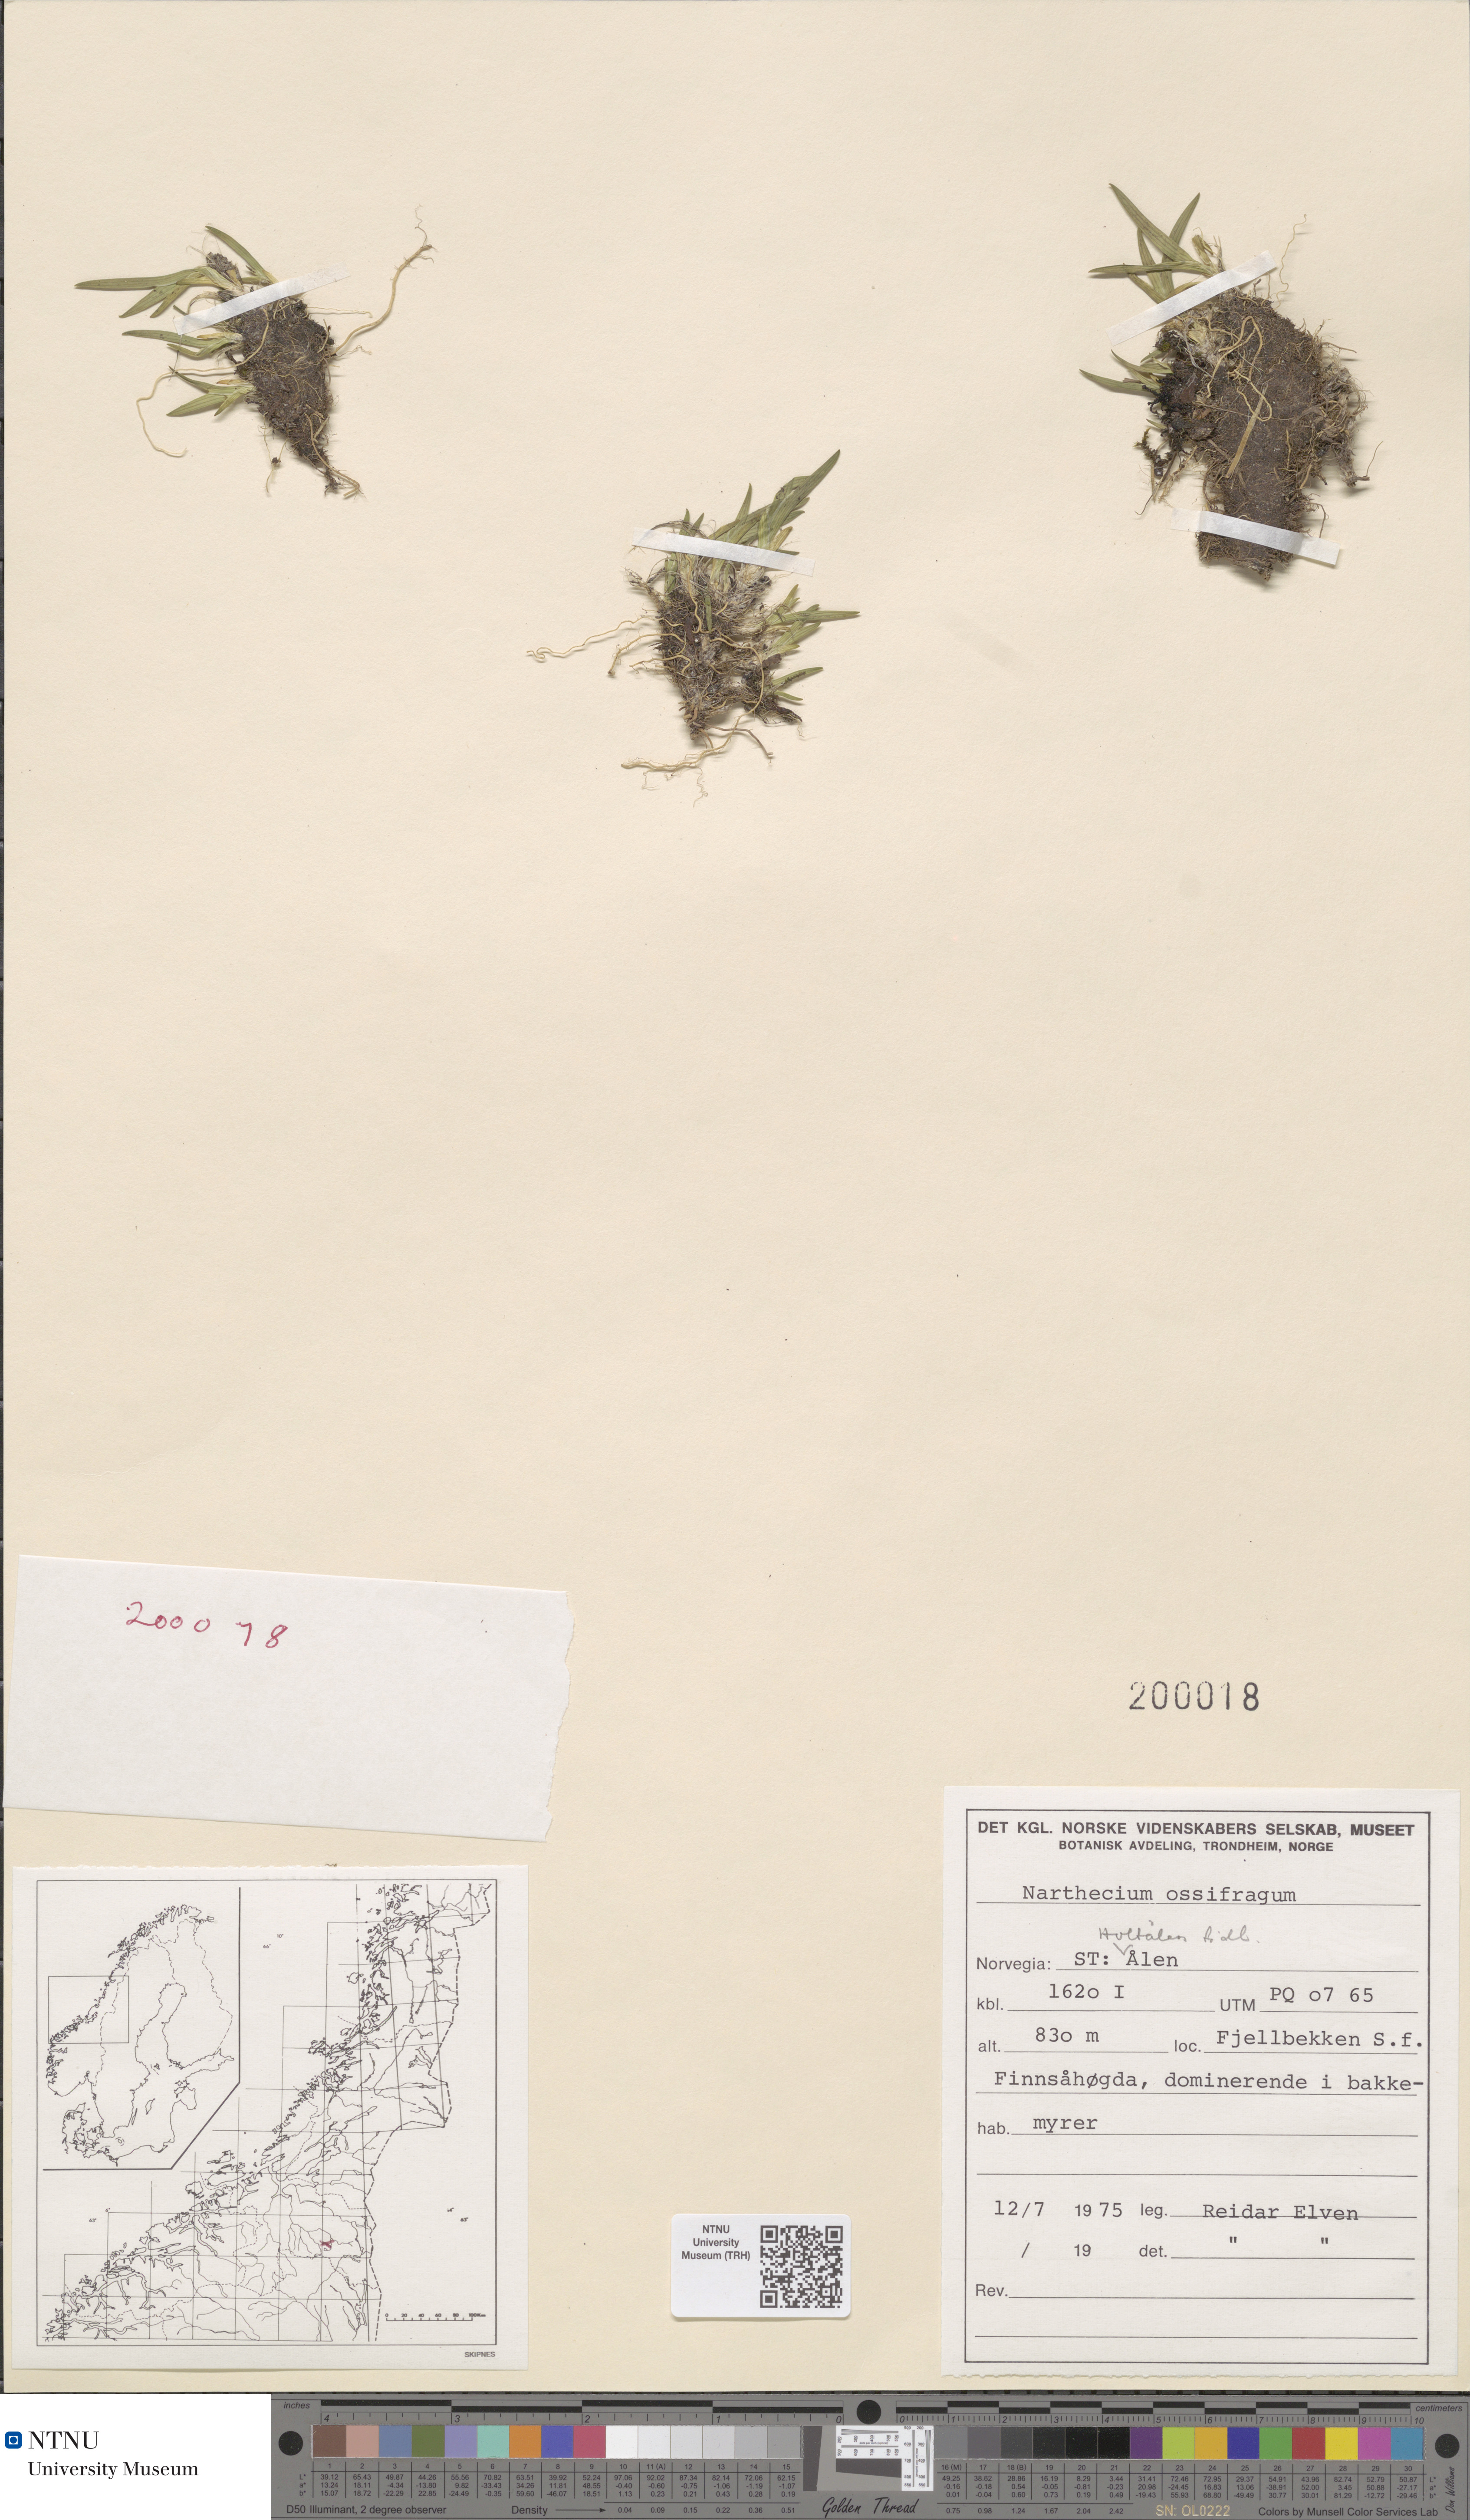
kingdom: Plantae
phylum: Tracheophyta
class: Liliopsida
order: Dioscoreales
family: Nartheciaceae
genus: Narthecium
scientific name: Narthecium ossifragum
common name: Bog asphodel
